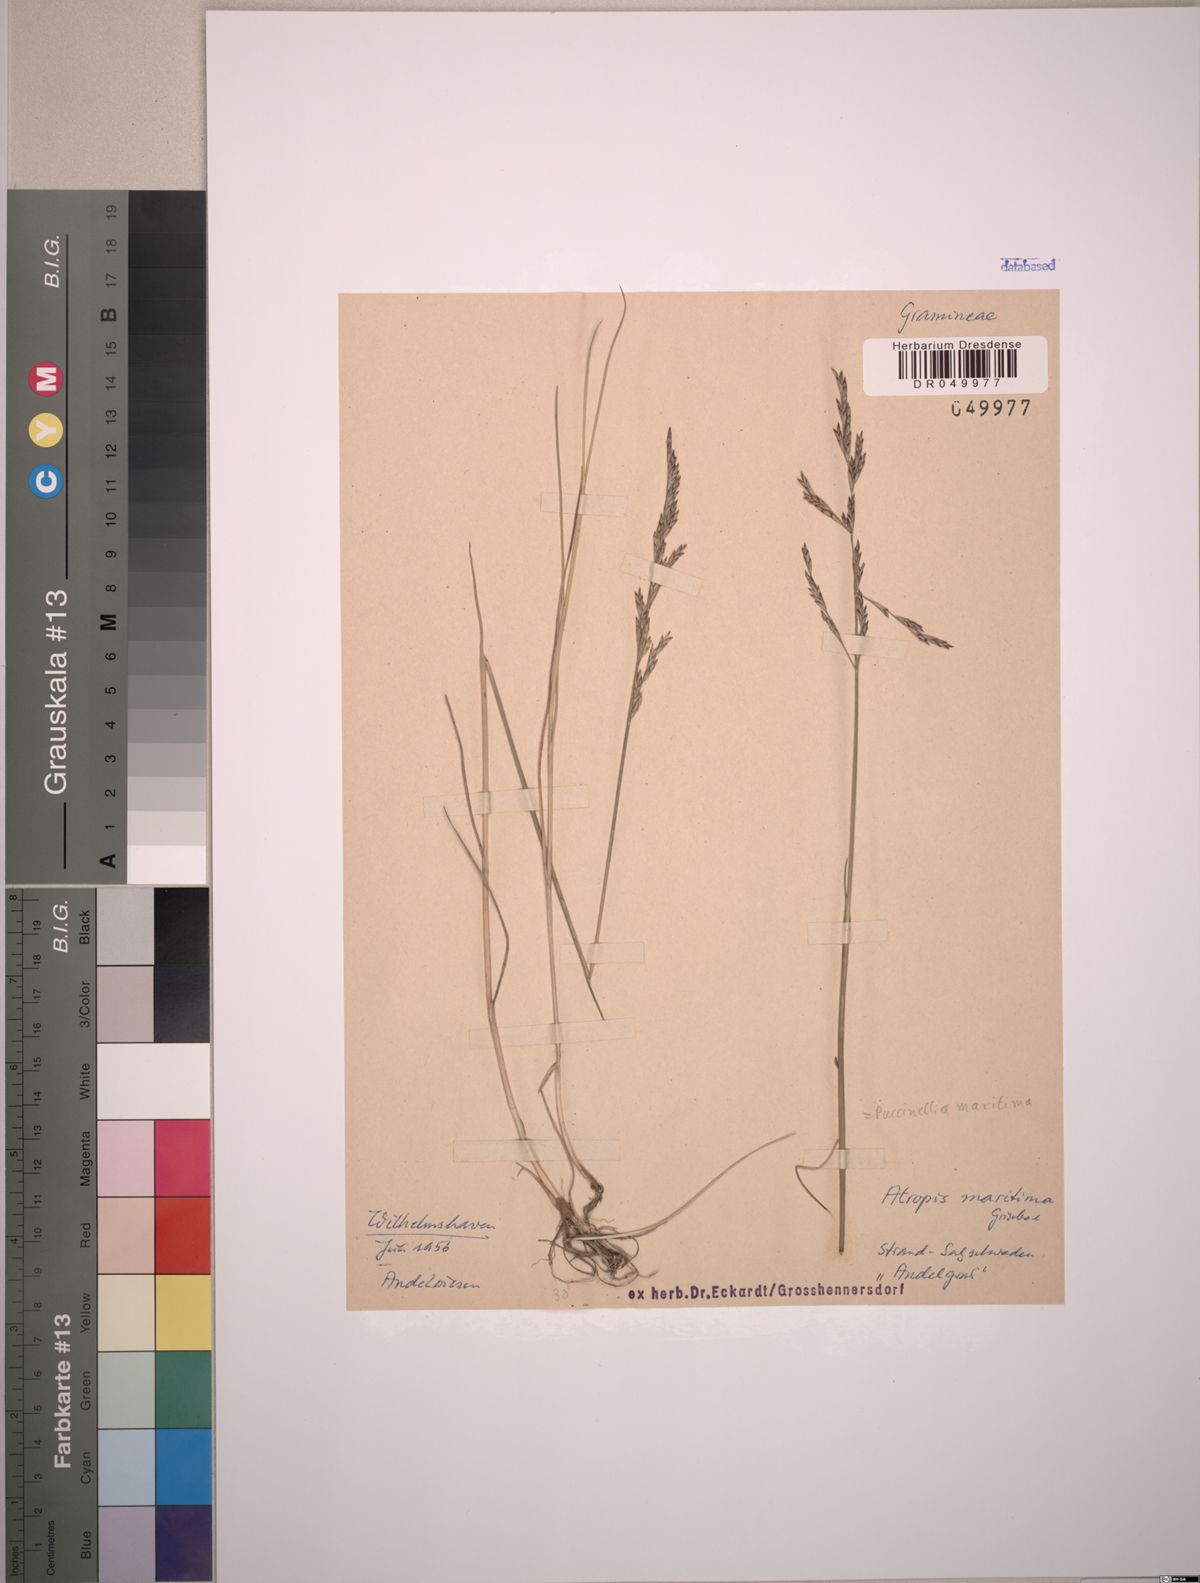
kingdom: Plantae
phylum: Tracheophyta
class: Liliopsida
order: Poales
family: Poaceae
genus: Puccinellia
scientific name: Puccinellia maritima
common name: Common saltmarsh grass
